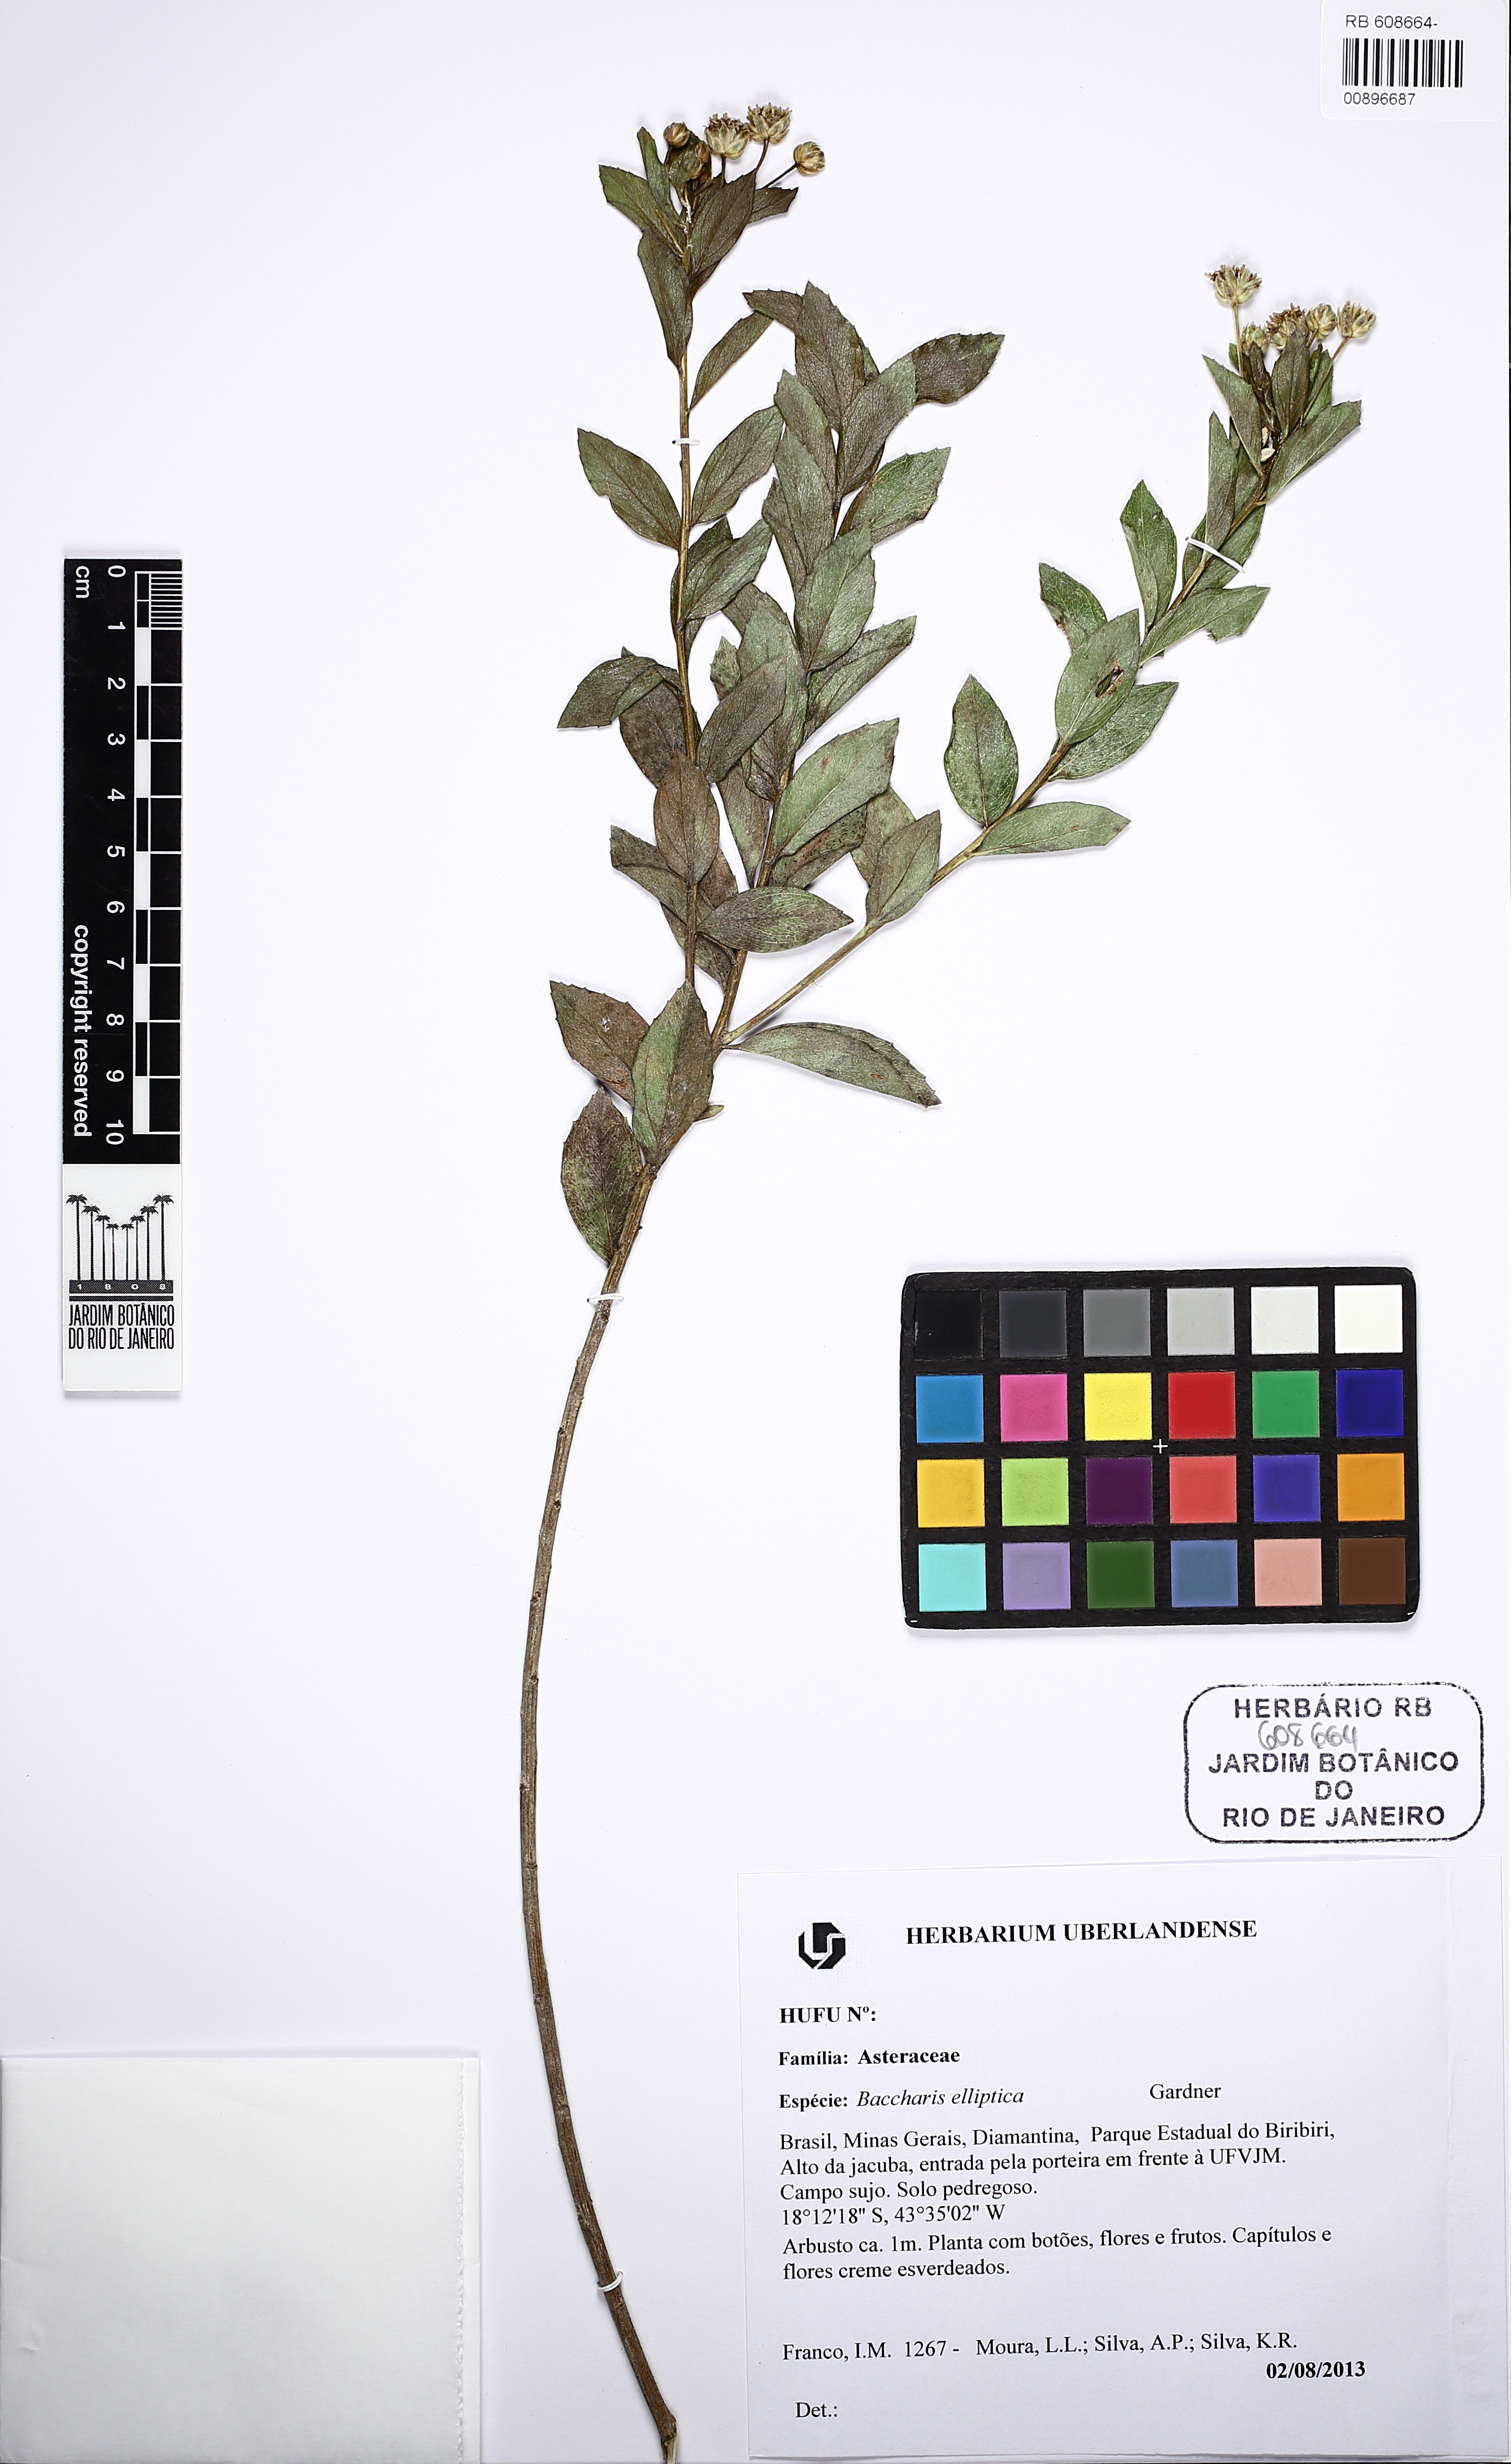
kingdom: Plantae
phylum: Tracheophyta
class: Magnoliopsida
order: Asterales
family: Asteraceae
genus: Baccharis
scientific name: Baccharis elliptica
